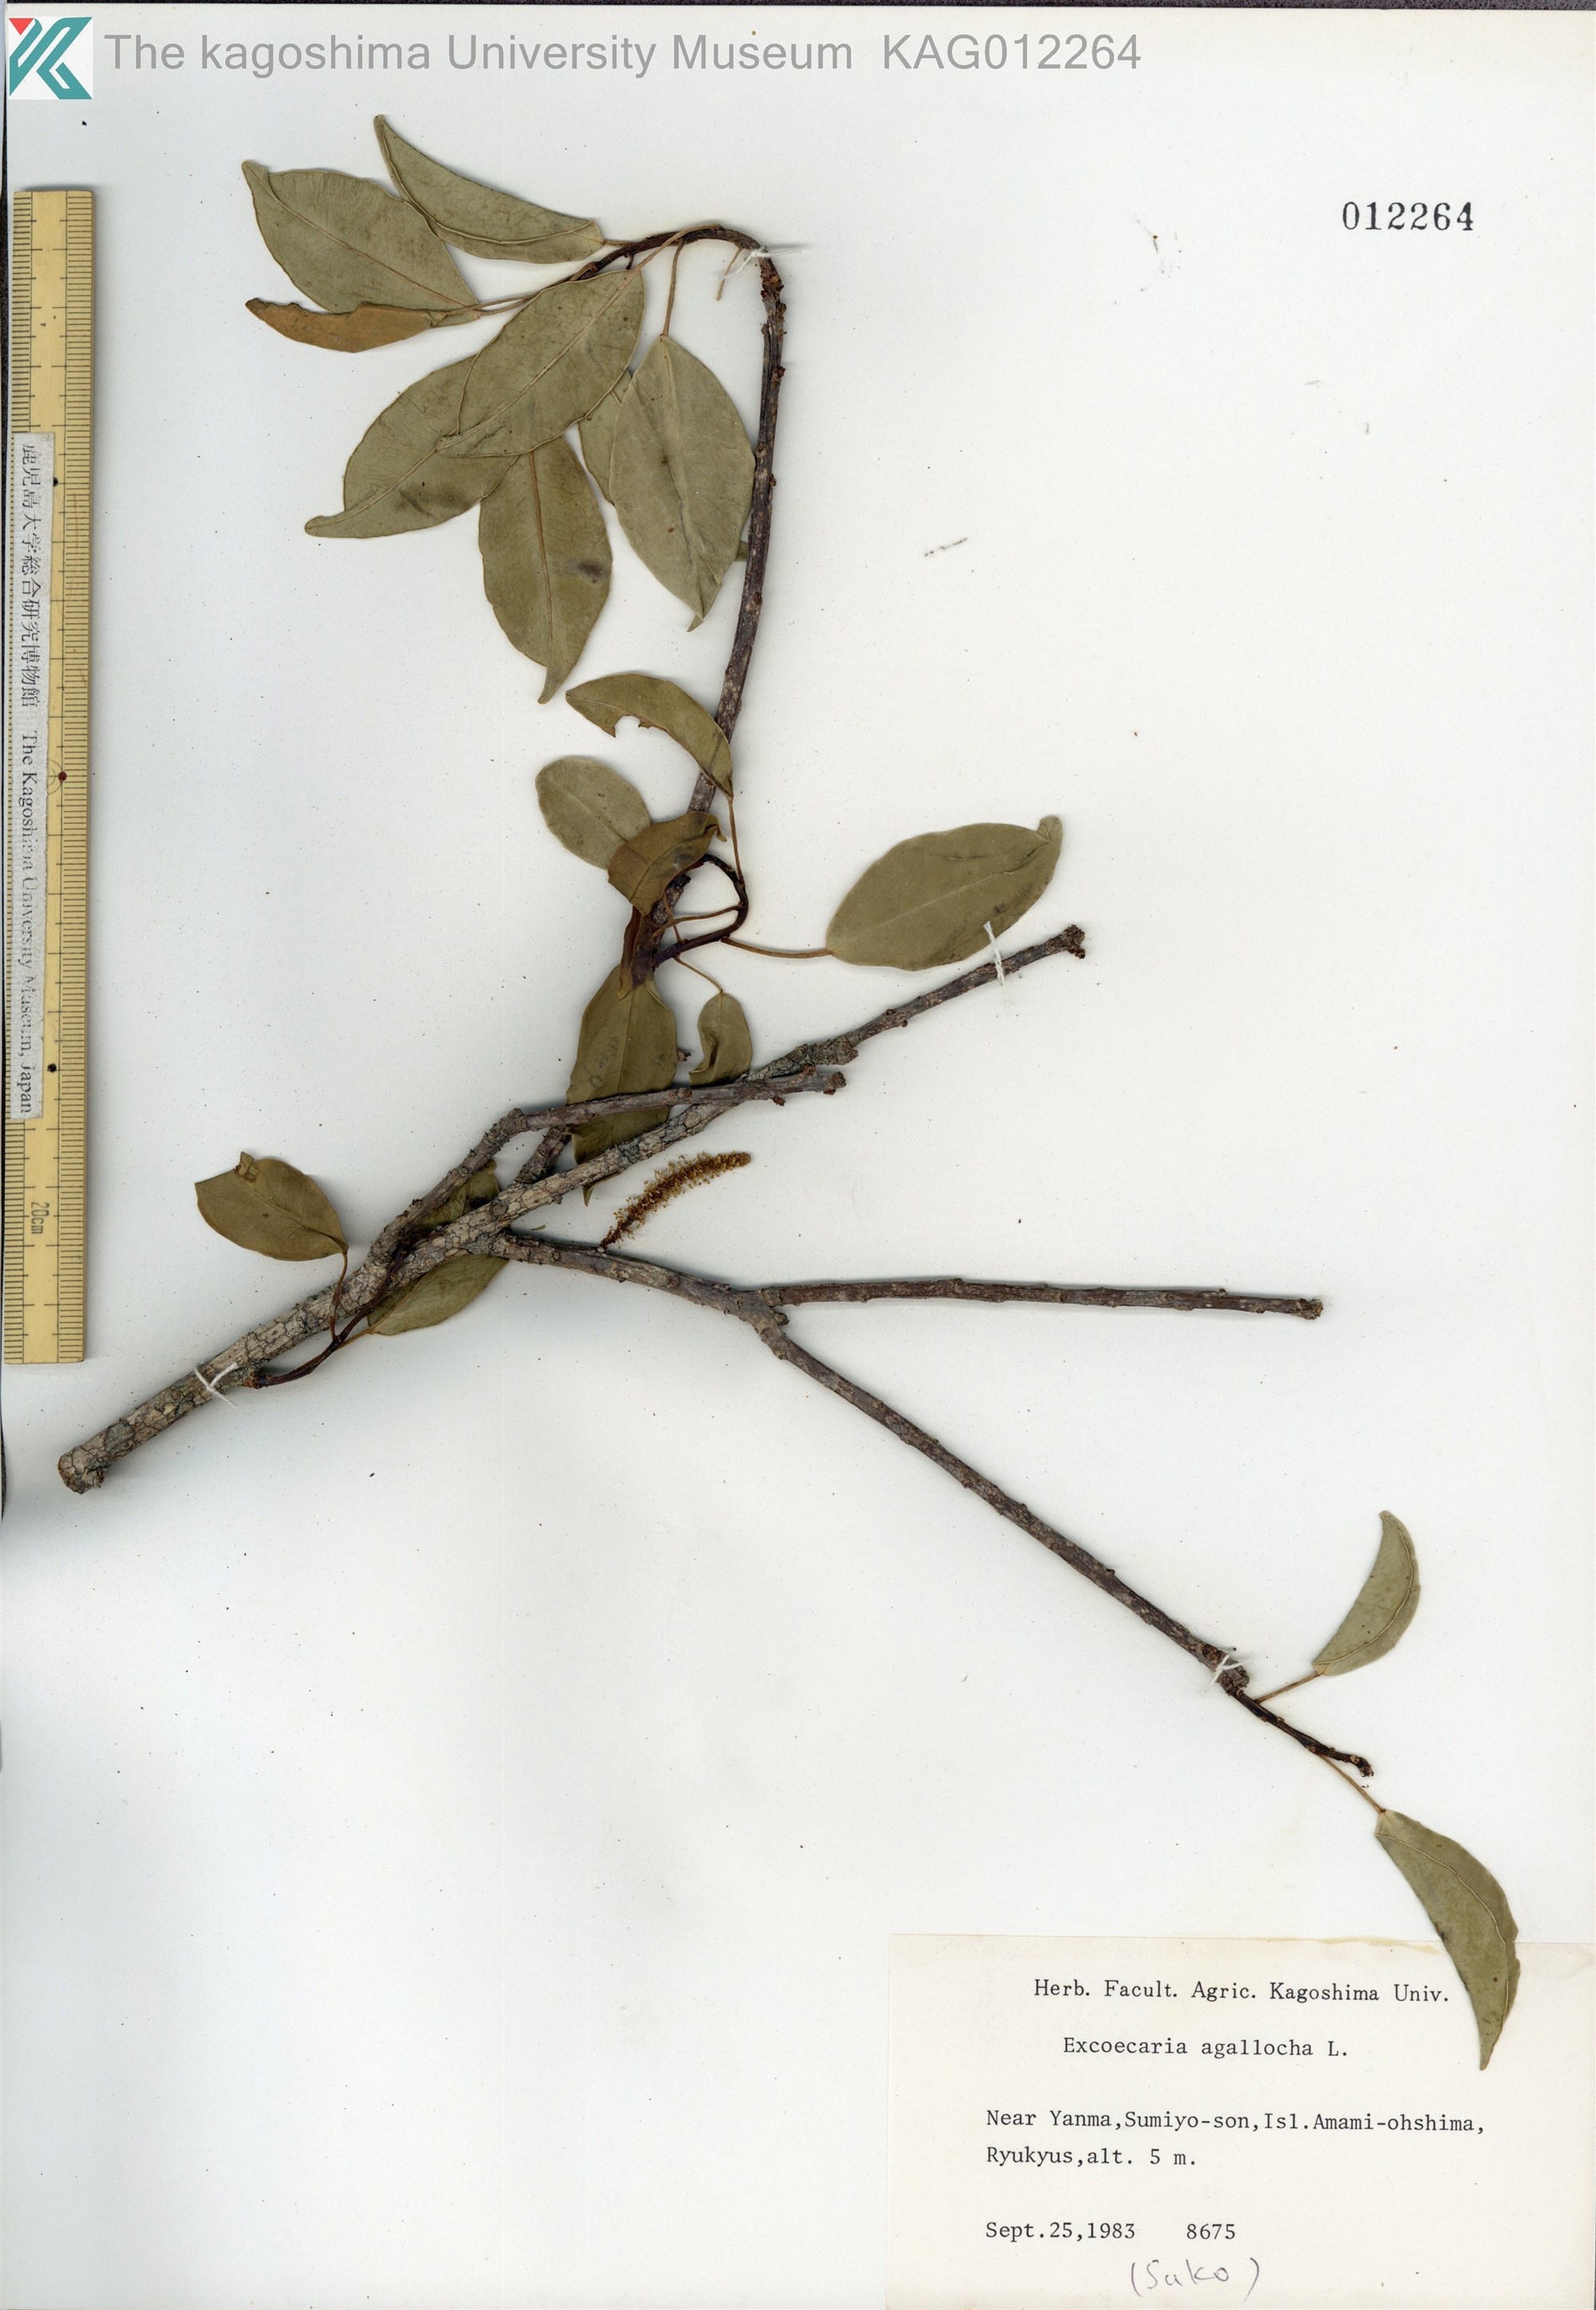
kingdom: Plantae
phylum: Tracheophyta
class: Magnoliopsida
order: Malpighiales
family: Euphorbiaceae
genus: Excoecaria
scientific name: Excoecaria agallocha
